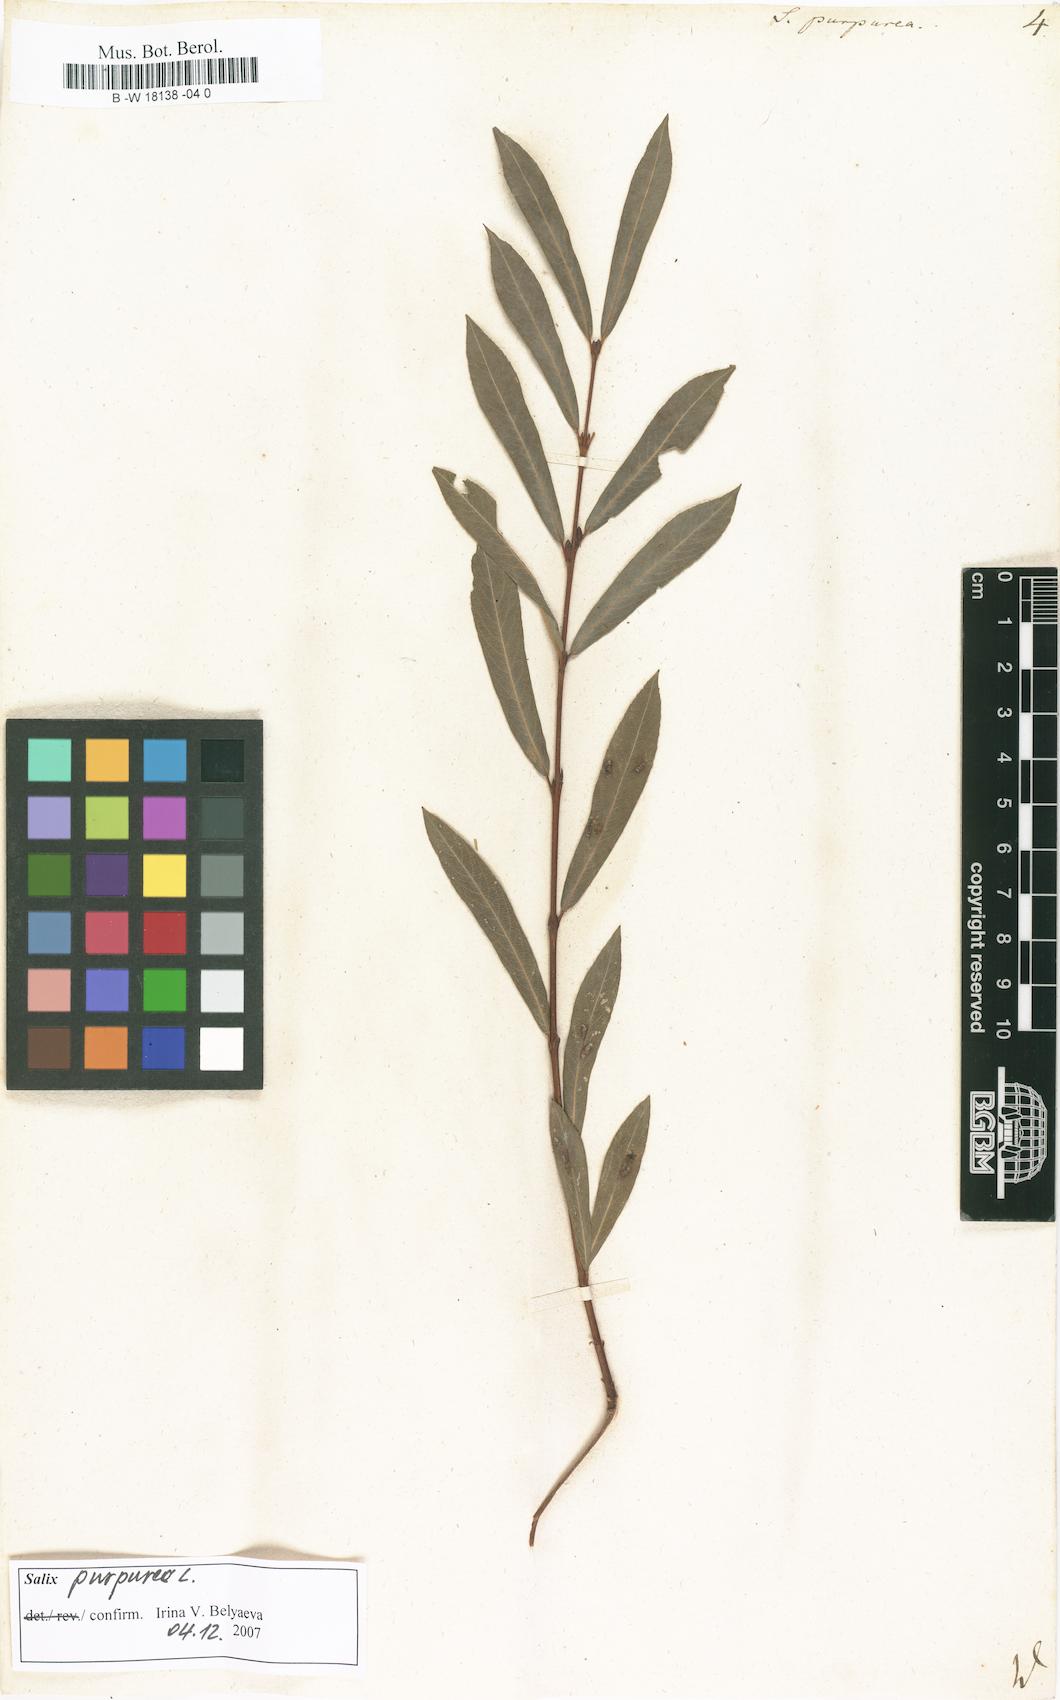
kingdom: Plantae
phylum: Tracheophyta
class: Magnoliopsida
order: Malpighiales
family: Salicaceae
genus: Salix
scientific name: Salix purpurea
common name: Purple willow
